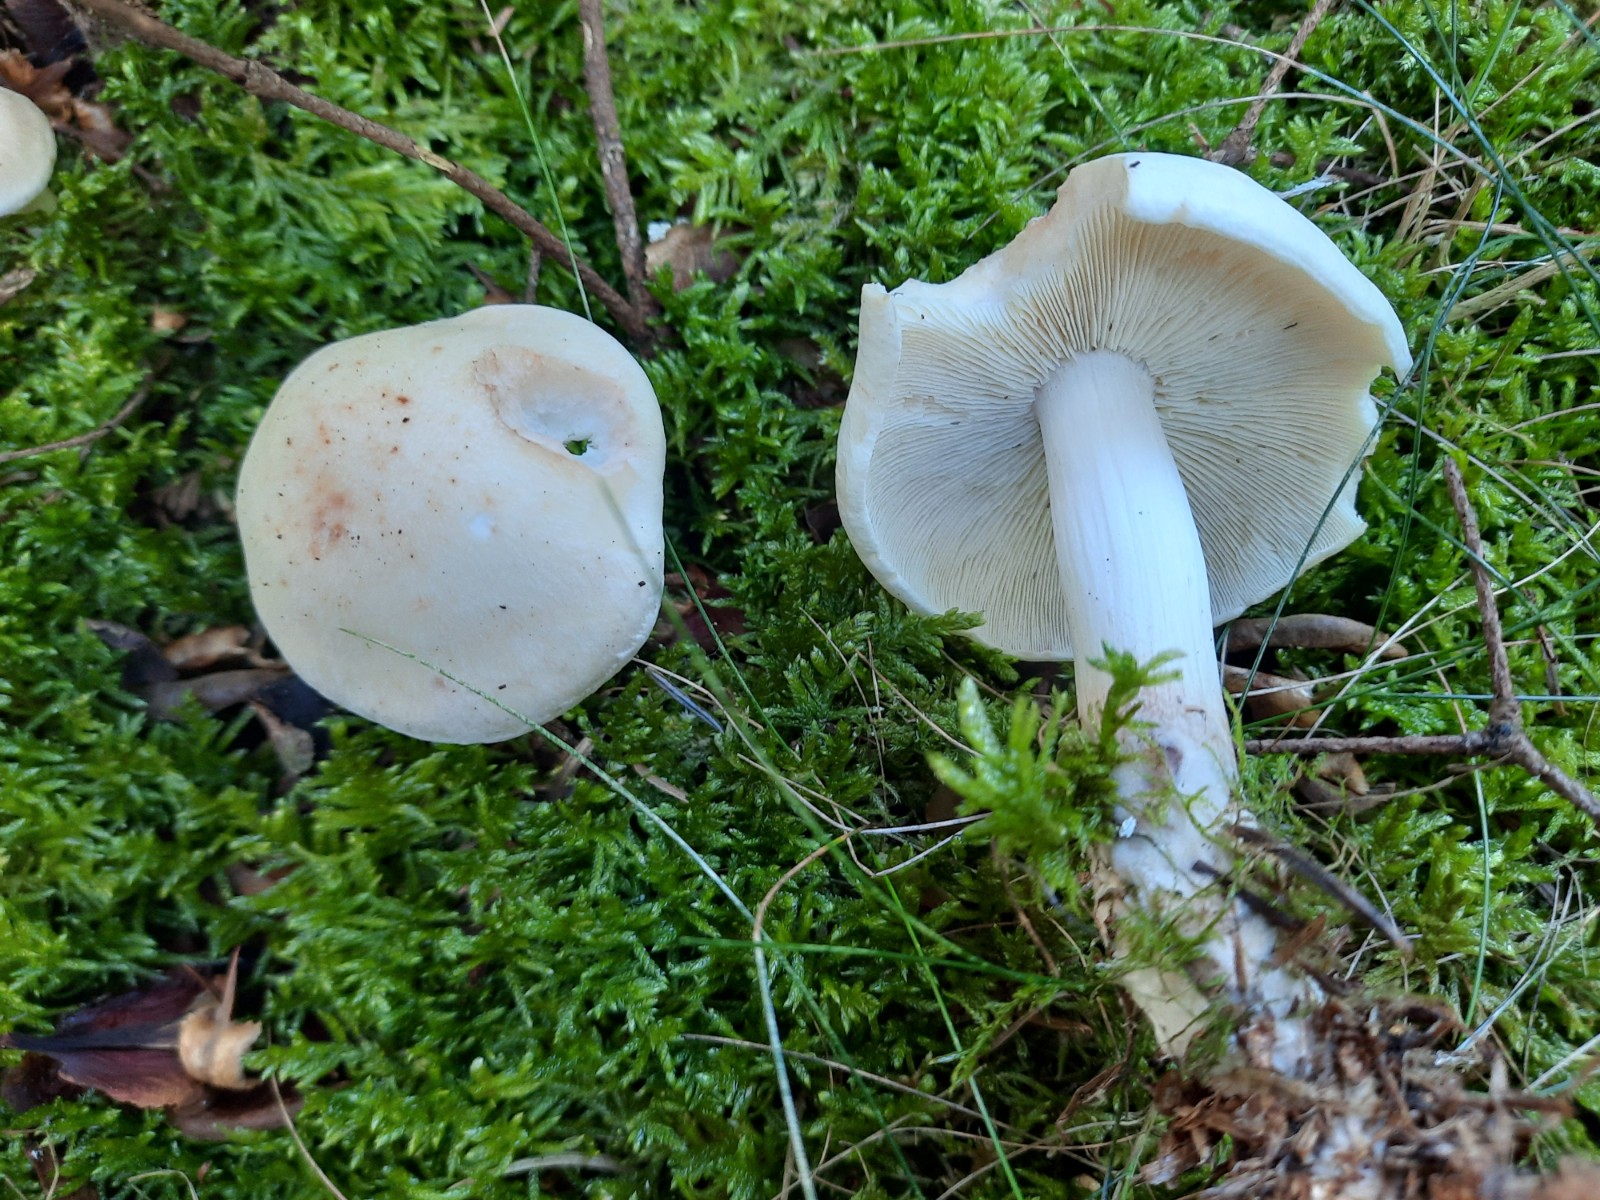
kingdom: Fungi
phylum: Basidiomycota
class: Agaricomycetes
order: Agaricales
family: Omphalotaceae
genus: Rhodocollybia
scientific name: Rhodocollybia maculata
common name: plettet fladhat
